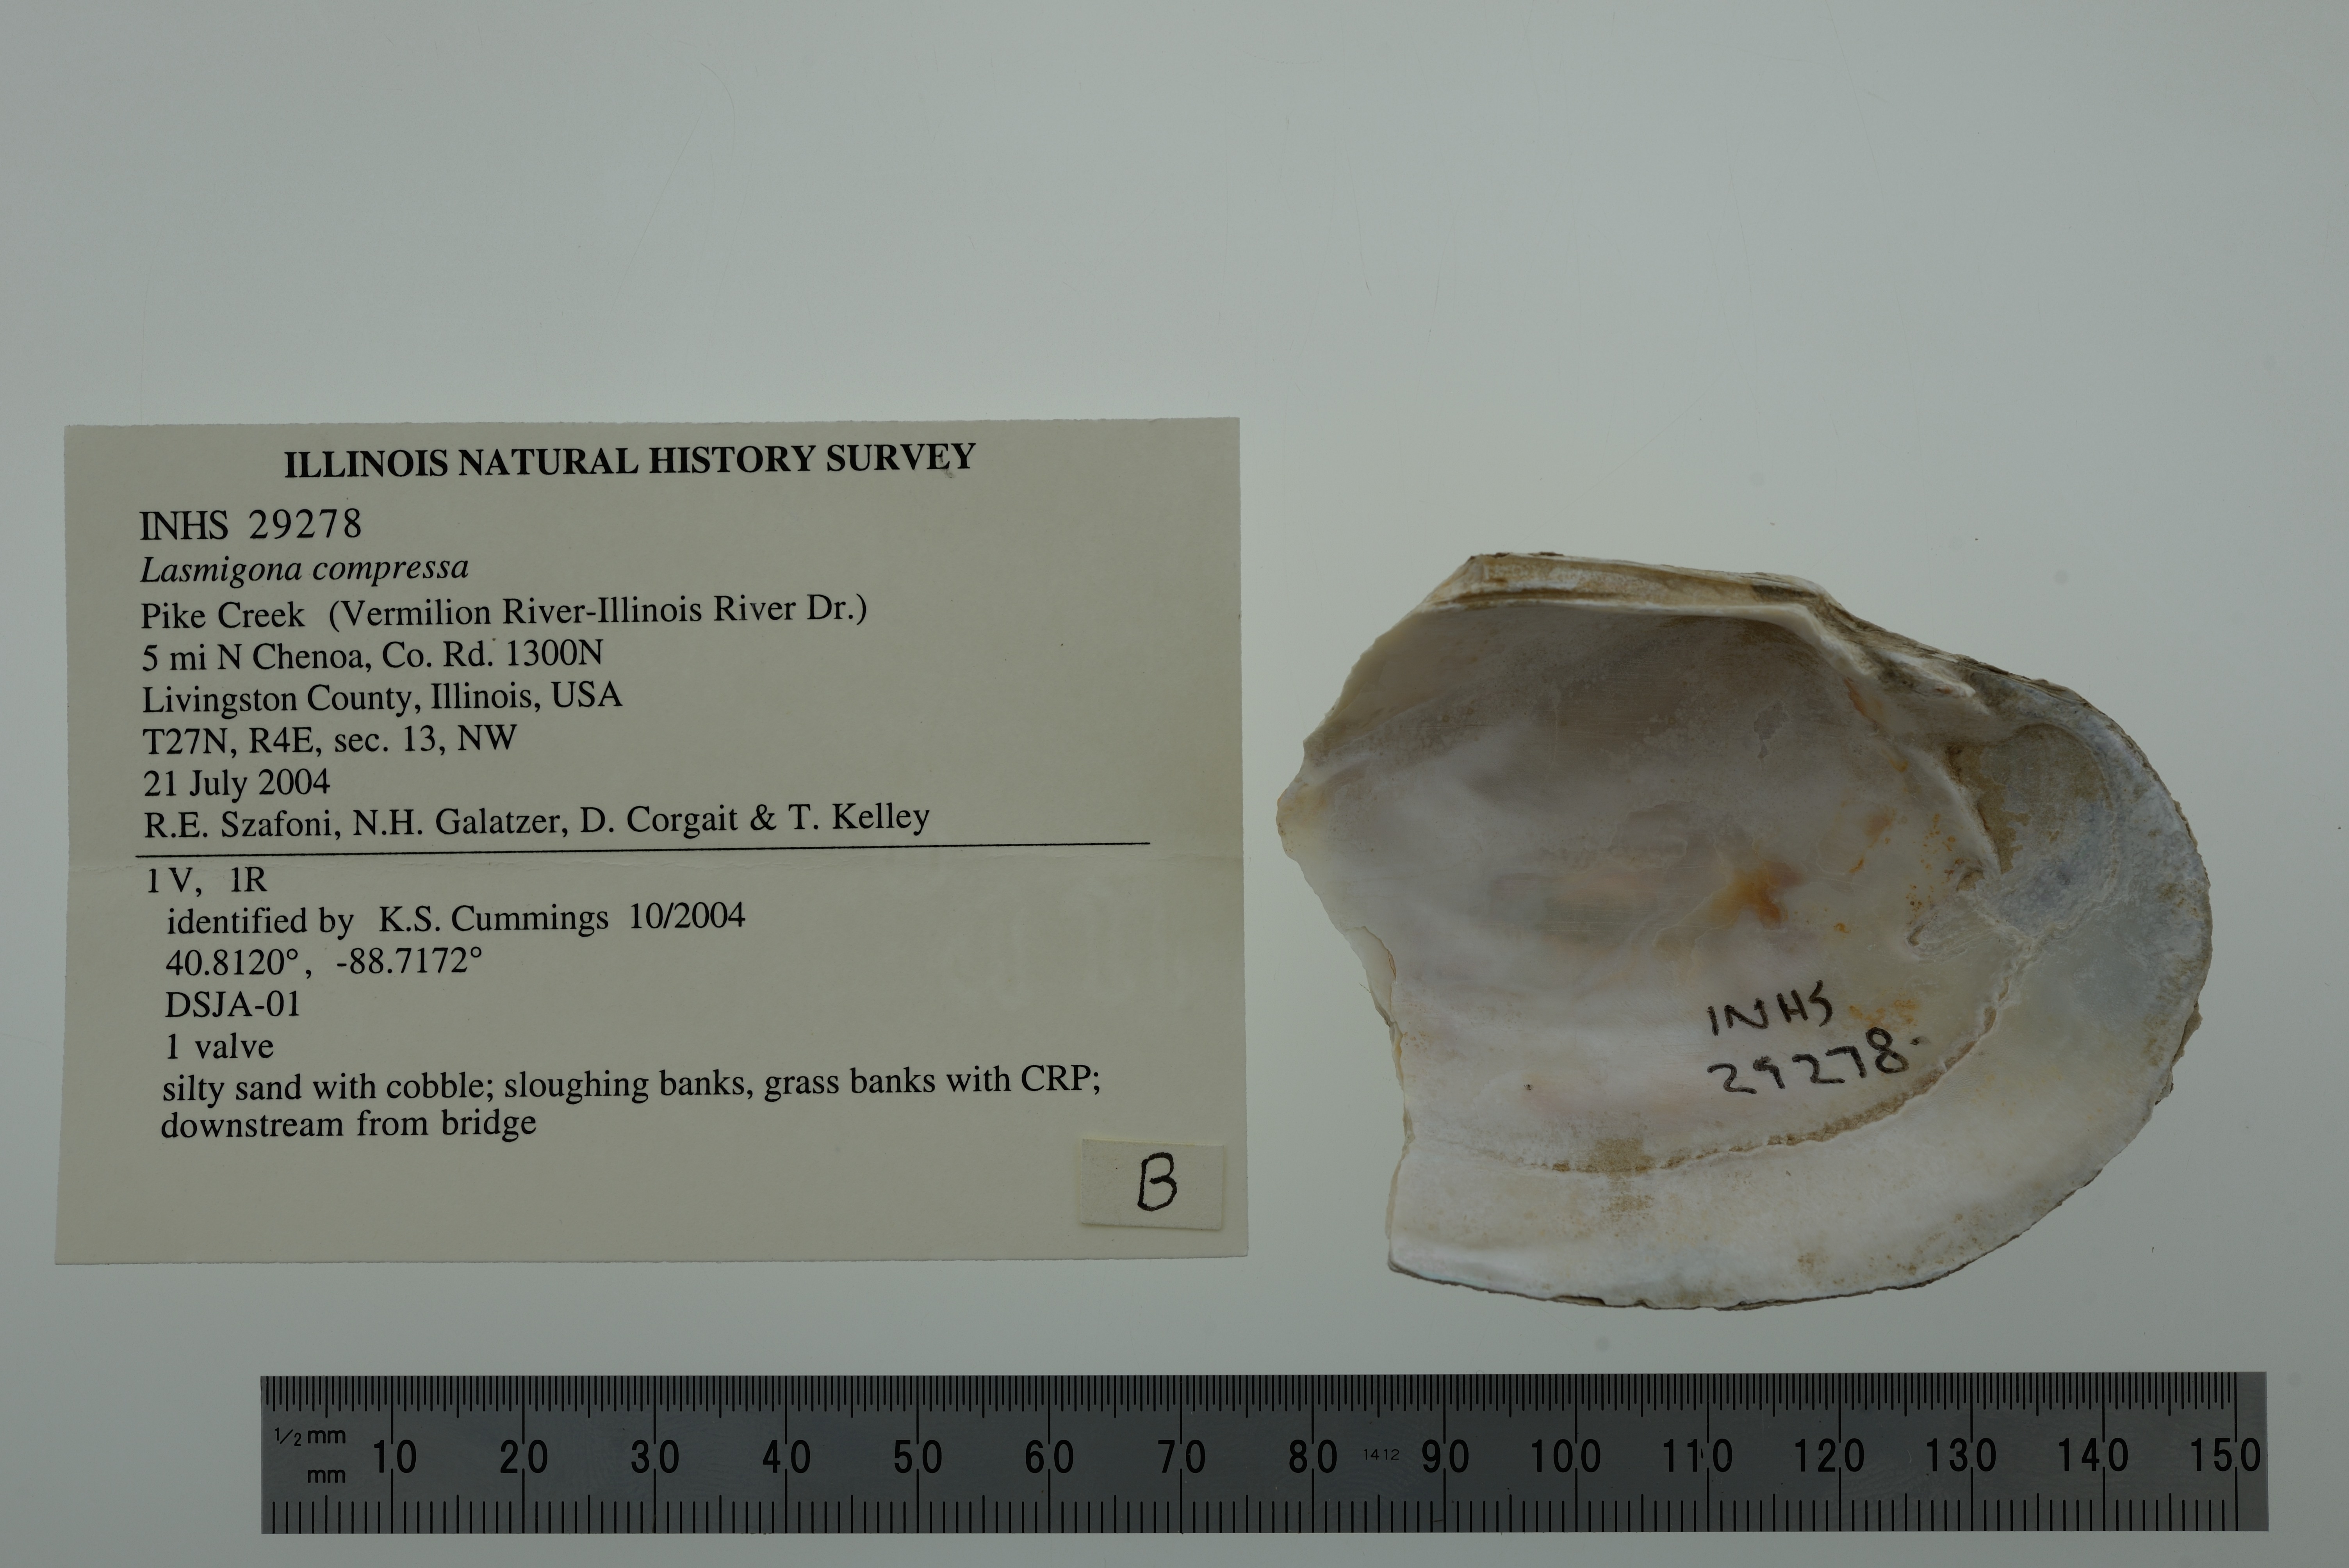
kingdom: Animalia
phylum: Mollusca
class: Bivalvia
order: Unionida
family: Unionidae
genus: Lasmigona
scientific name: Lasmigona compressa
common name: Creek heelsplitter
